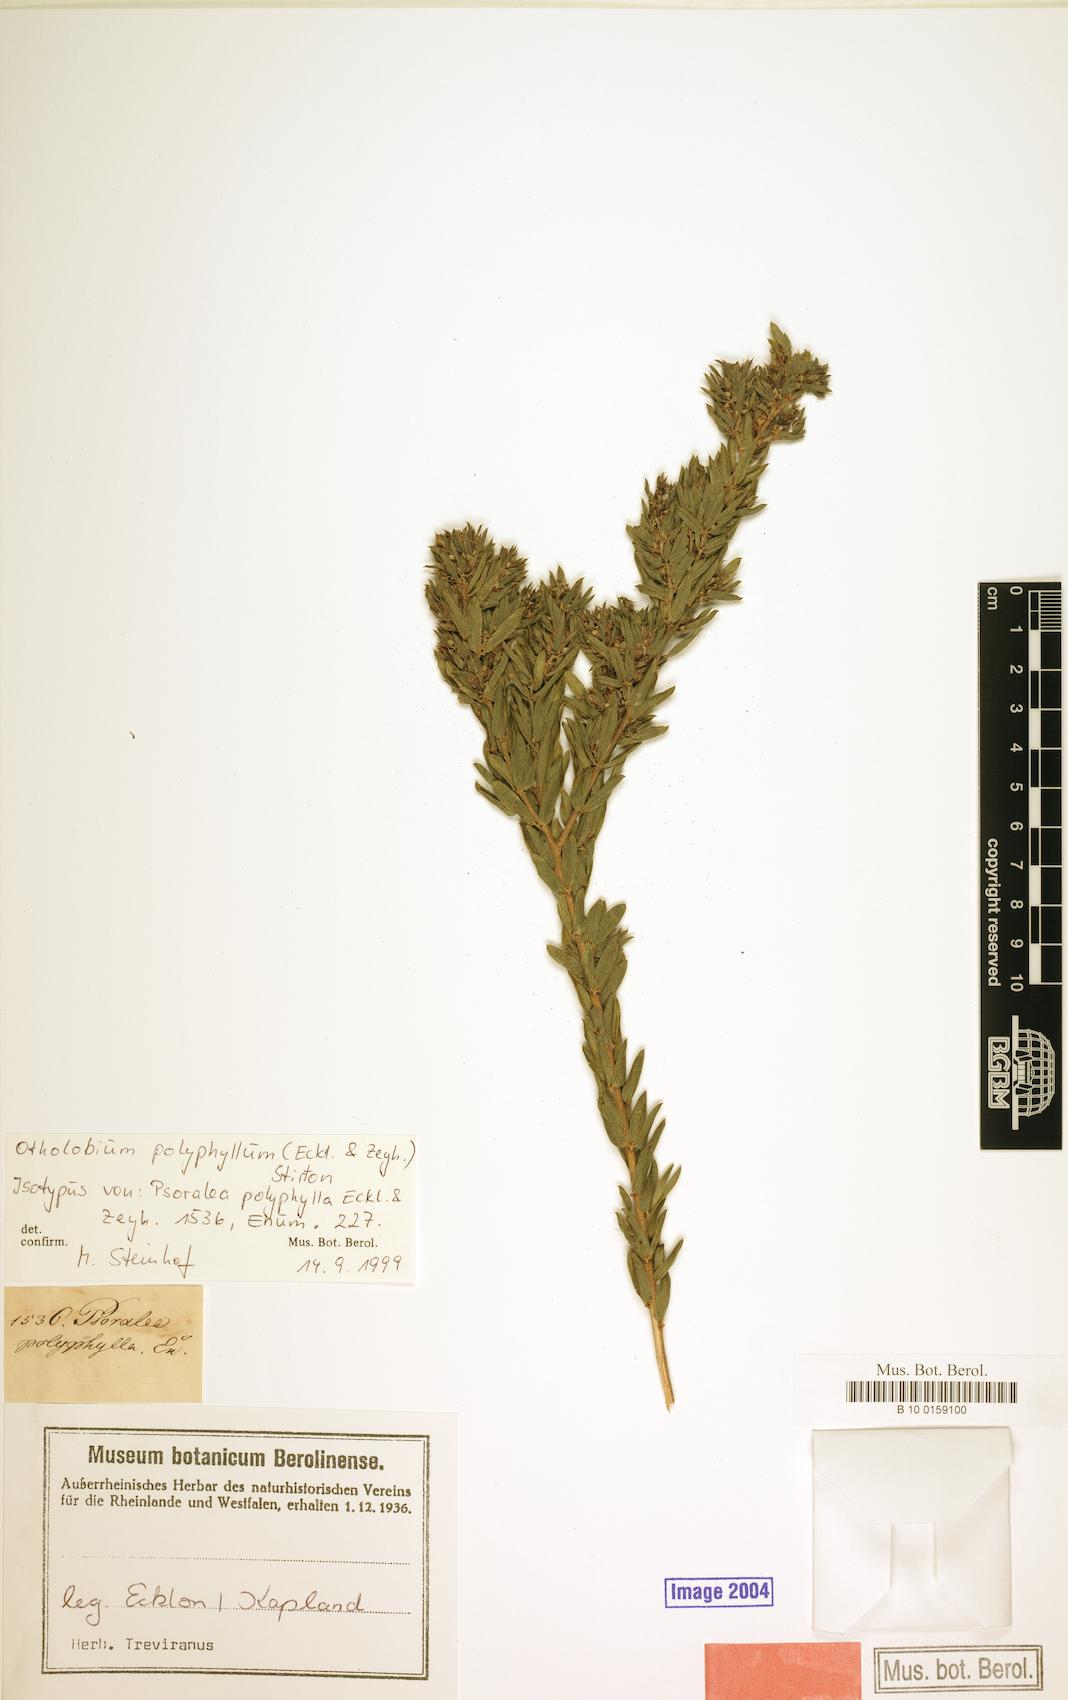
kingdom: Plantae
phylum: Tracheophyta
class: Magnoliopsida
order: Fabales
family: Fabaceae
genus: Psoralea
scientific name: Psoralea polyphylla
